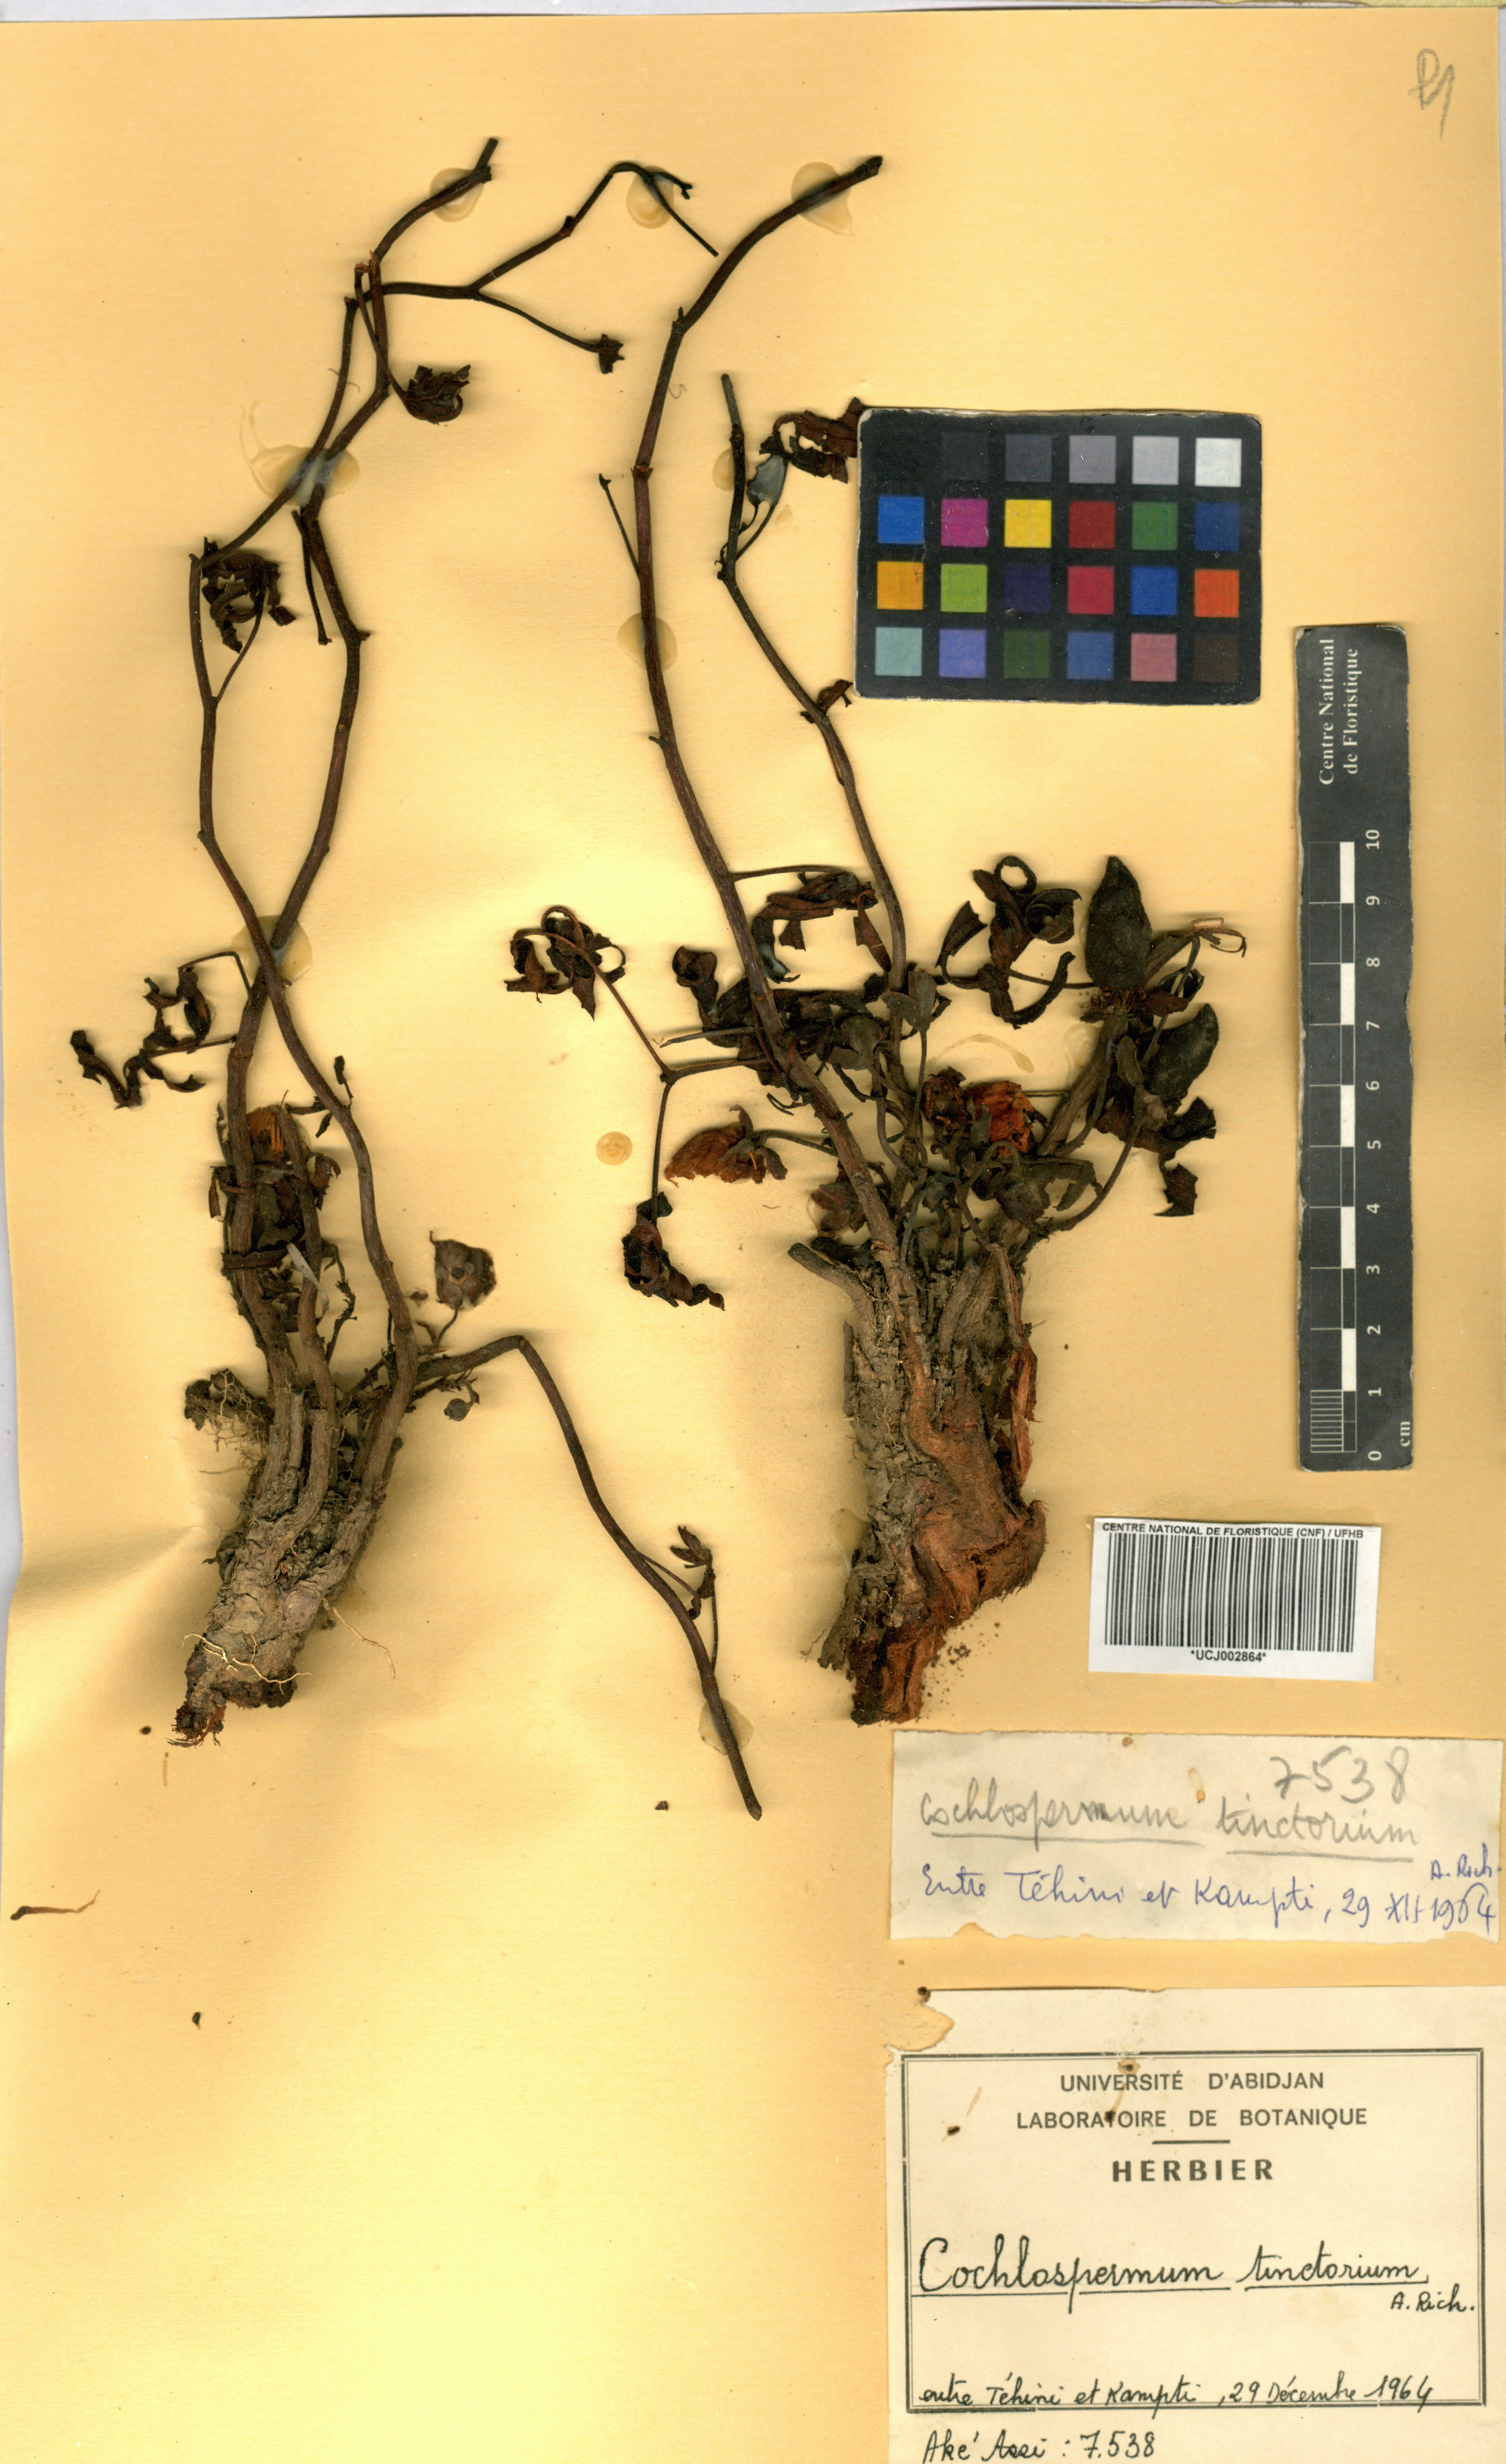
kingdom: Plantae
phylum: Tracheophyta
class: Magnoliopsida
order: Malvales
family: Cochlospermaceae
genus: Cochlospermum
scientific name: Cochlospermum tinctorium
